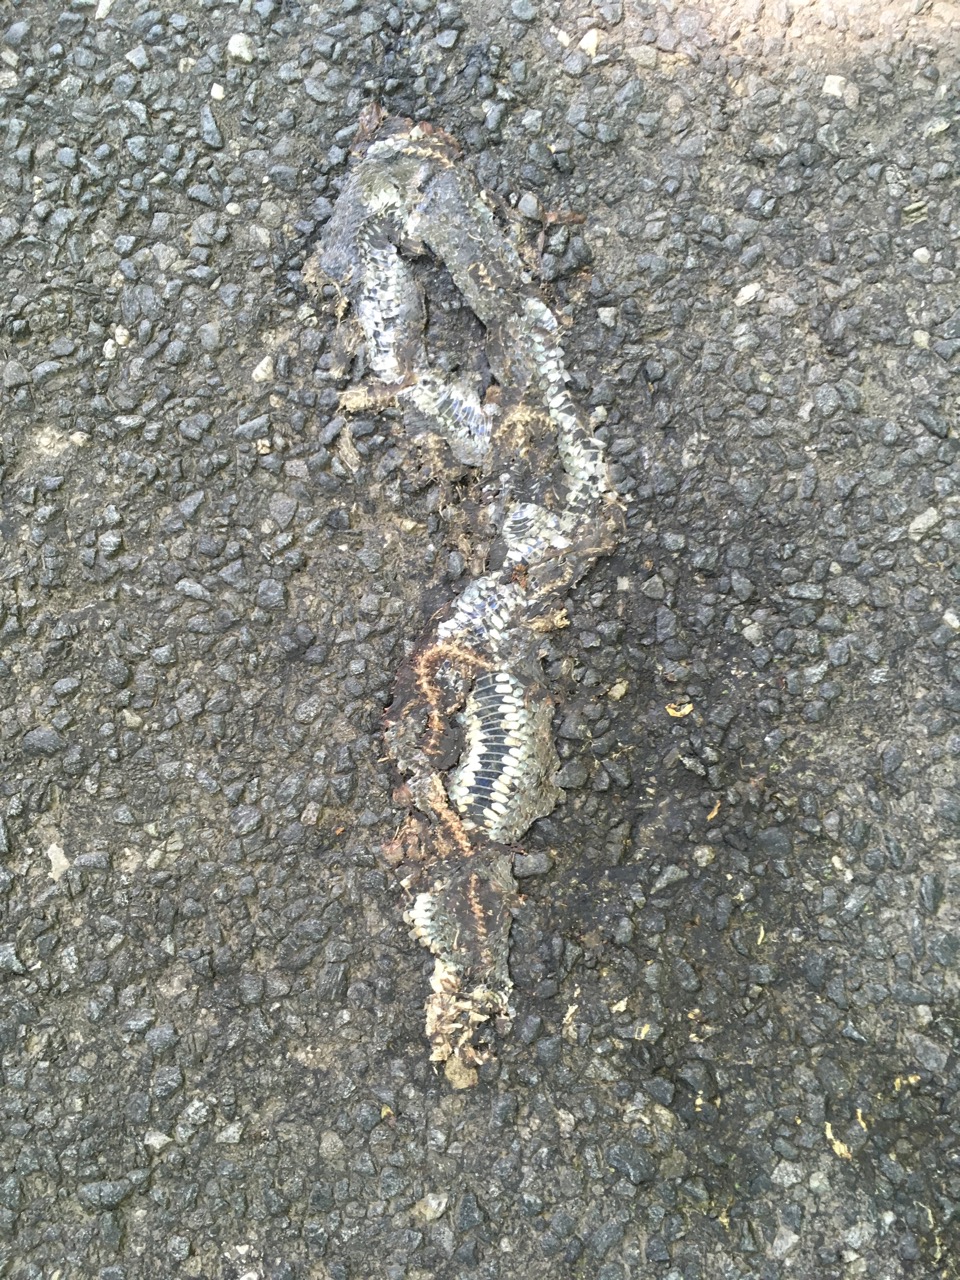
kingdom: Animalia
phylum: Chordata
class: Squamata
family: Colubridae
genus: Natrix
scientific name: Natrix natrix
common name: Grass snake
